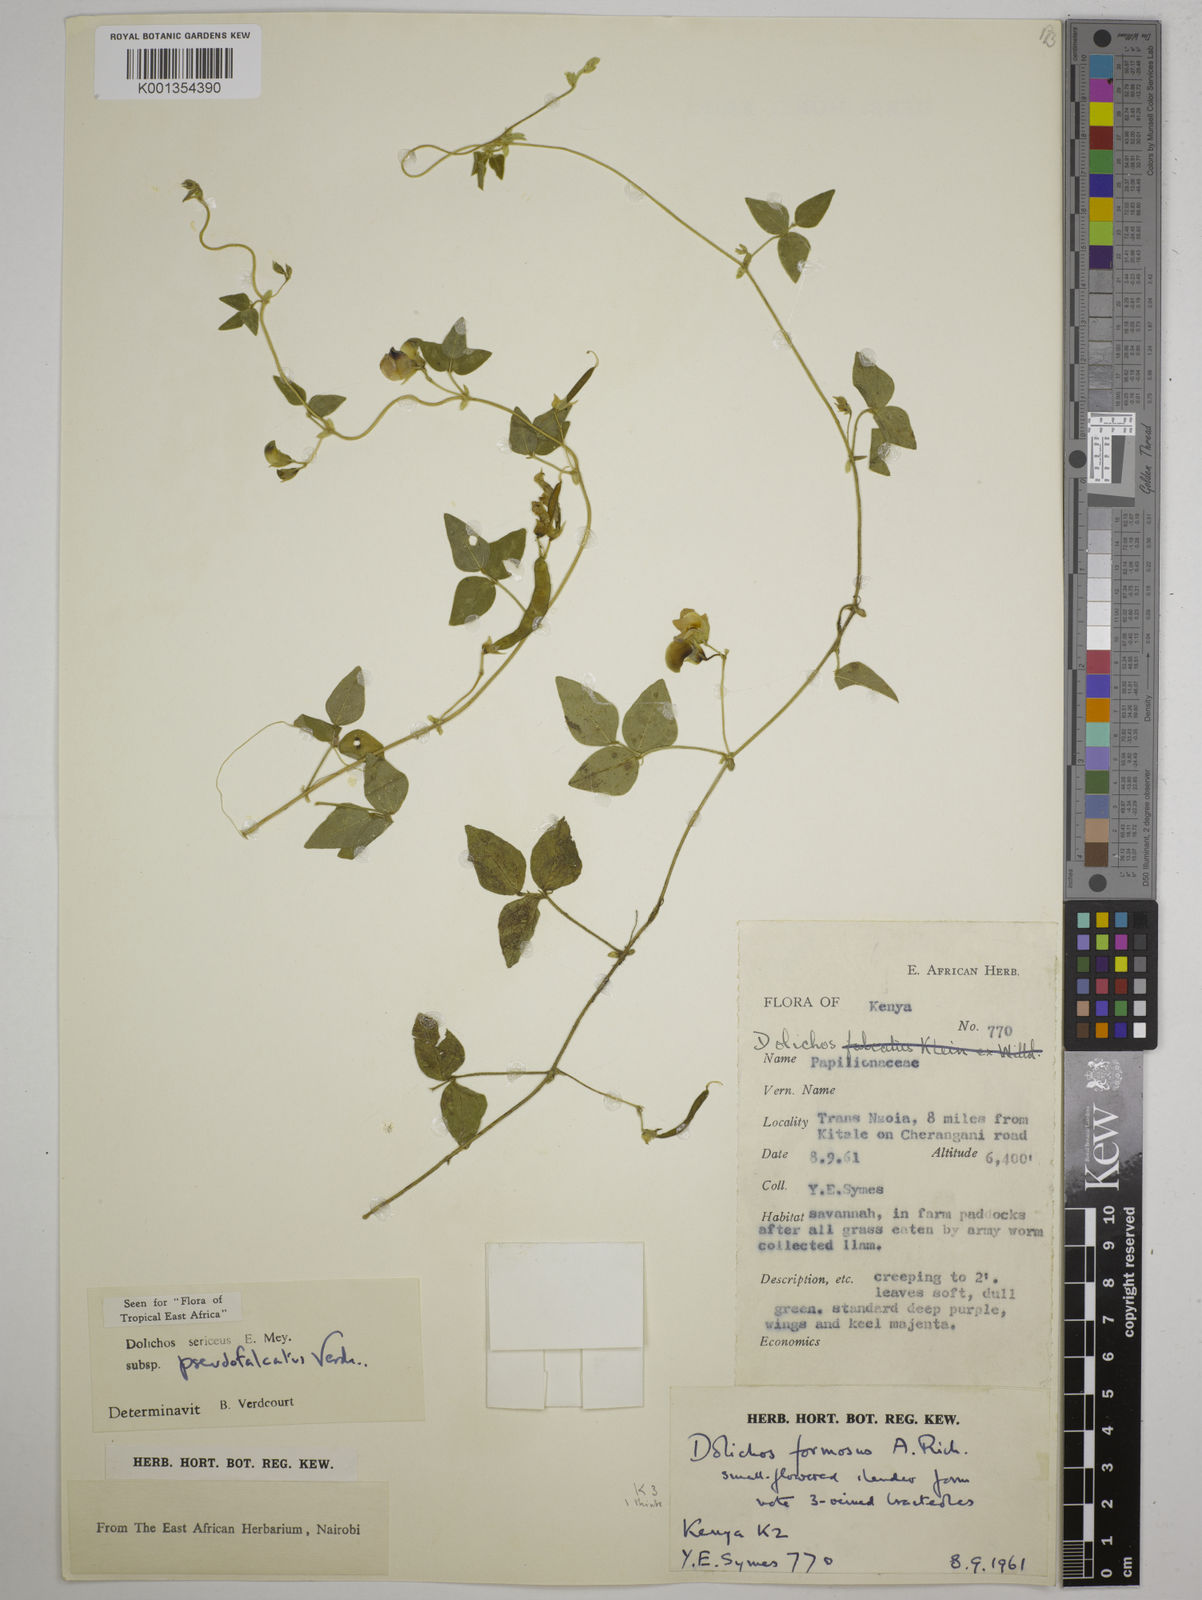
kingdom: Plantae
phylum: Tracheophyta
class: Magnoliopsida
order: Fabales
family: Fabaceae
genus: Dolichos
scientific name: Dolichos
